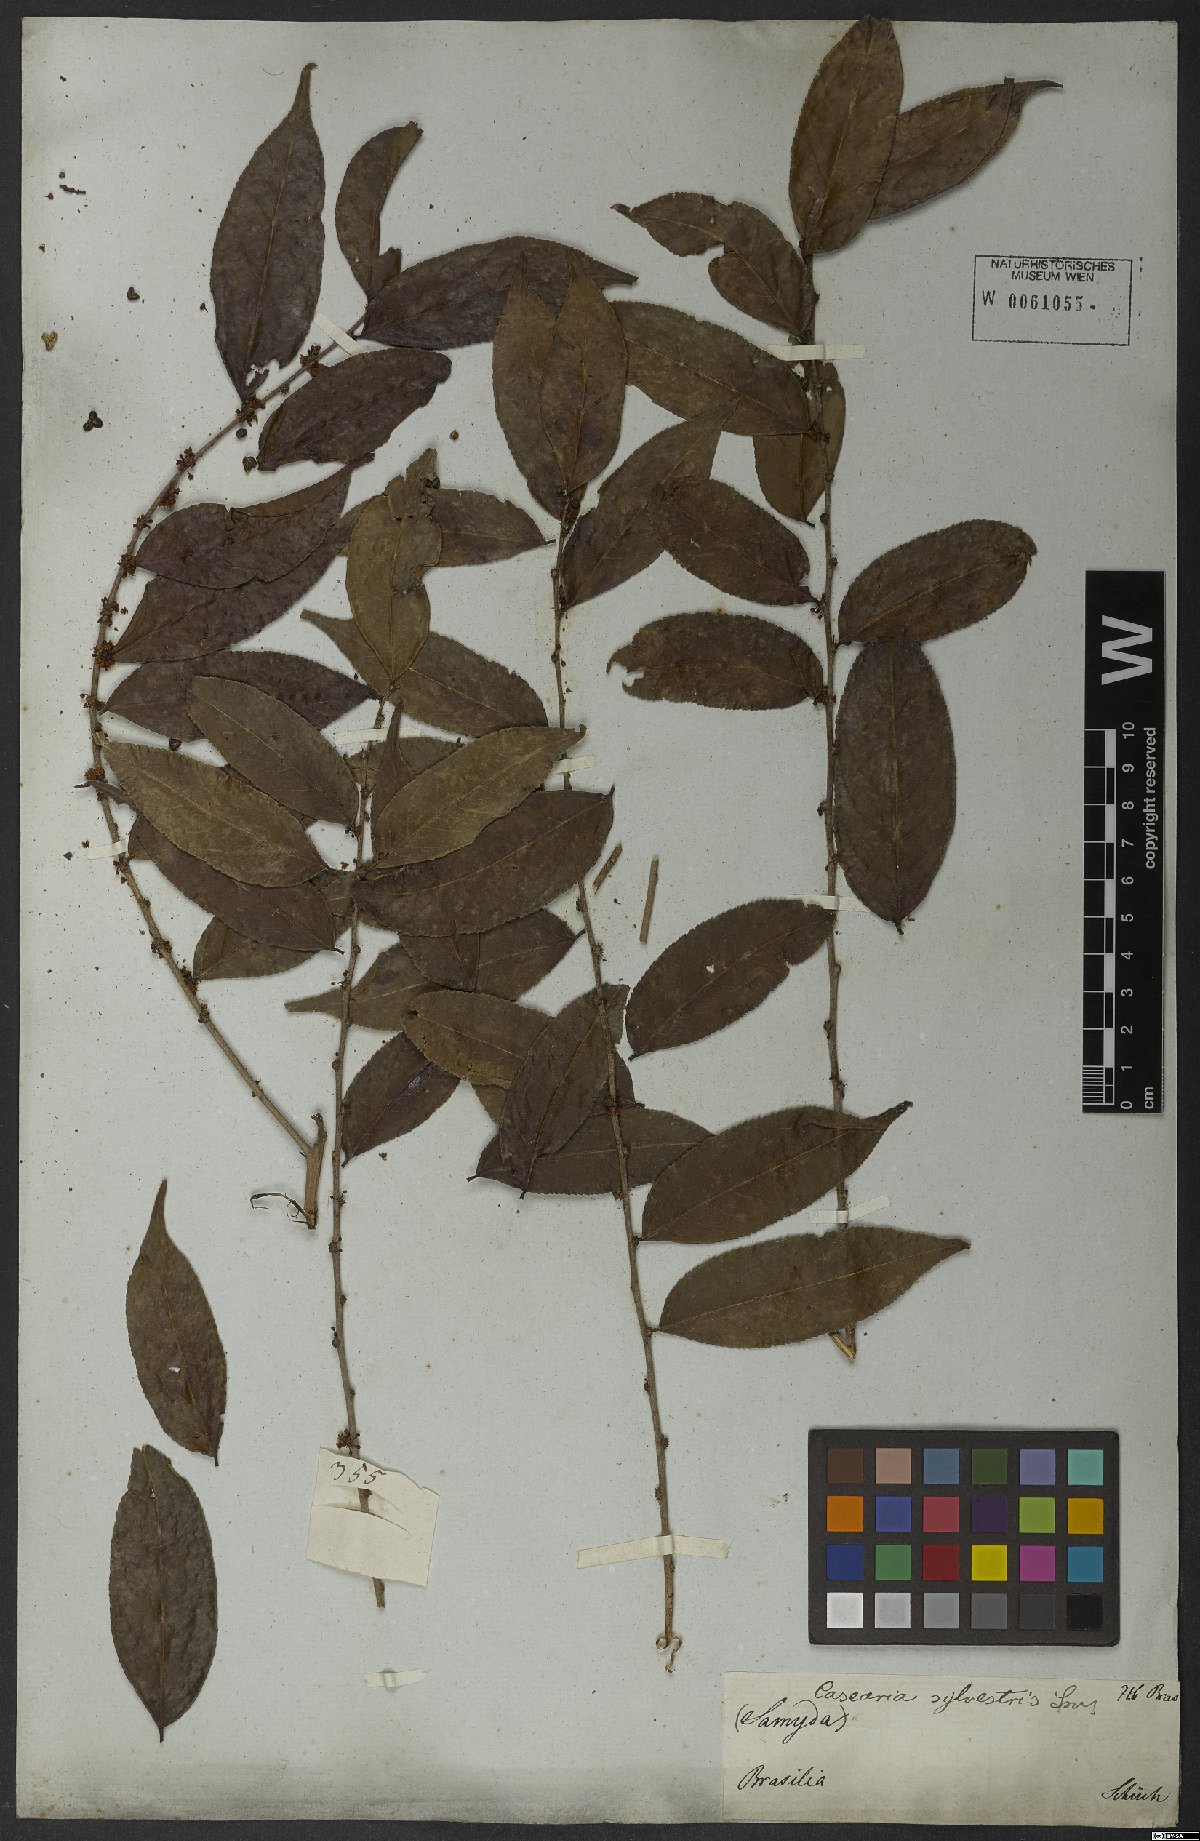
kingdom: Plantae
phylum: Tracheophyta
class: Magnoliopsida
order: Malpighiales
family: Salicaceae
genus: Casearia
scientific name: Casearia sylvestris
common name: Wild sage
